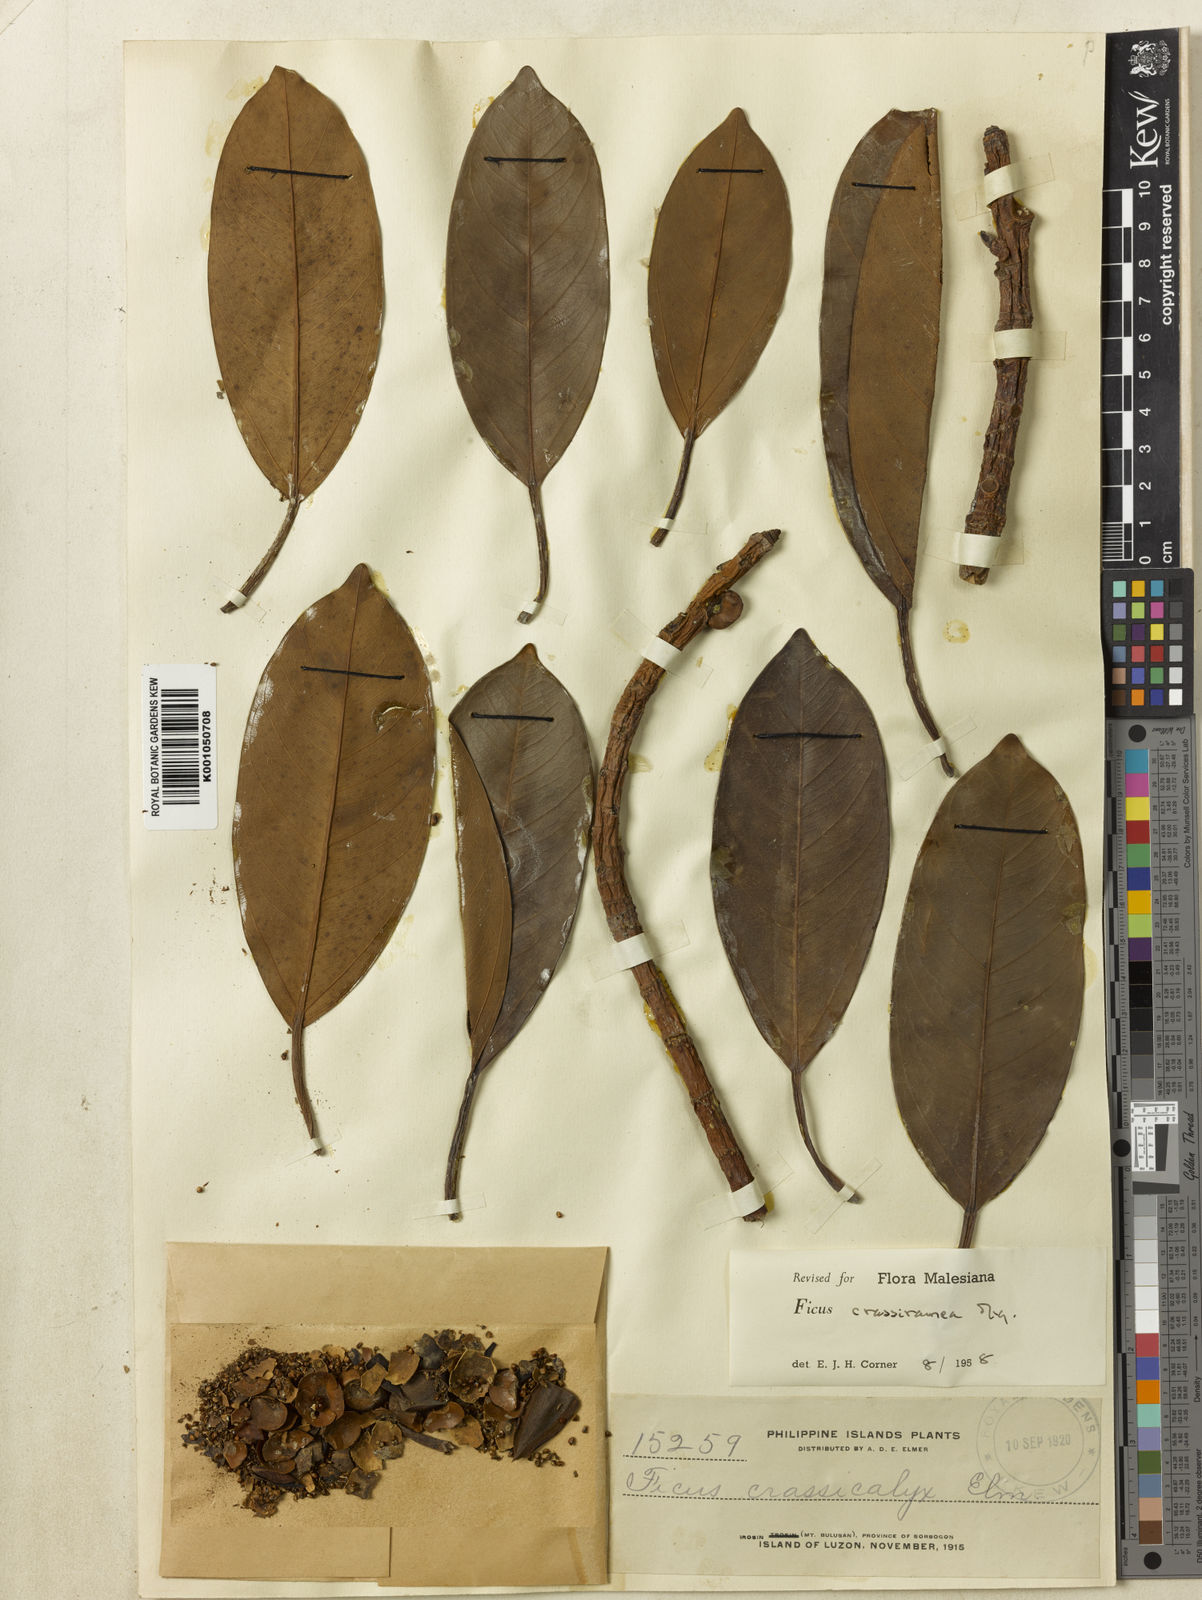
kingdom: Plantae
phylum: Tracheophyta
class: Magnoliopsida
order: Rosales
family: Moraceae
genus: Ficus
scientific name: Ficus crassiramea
